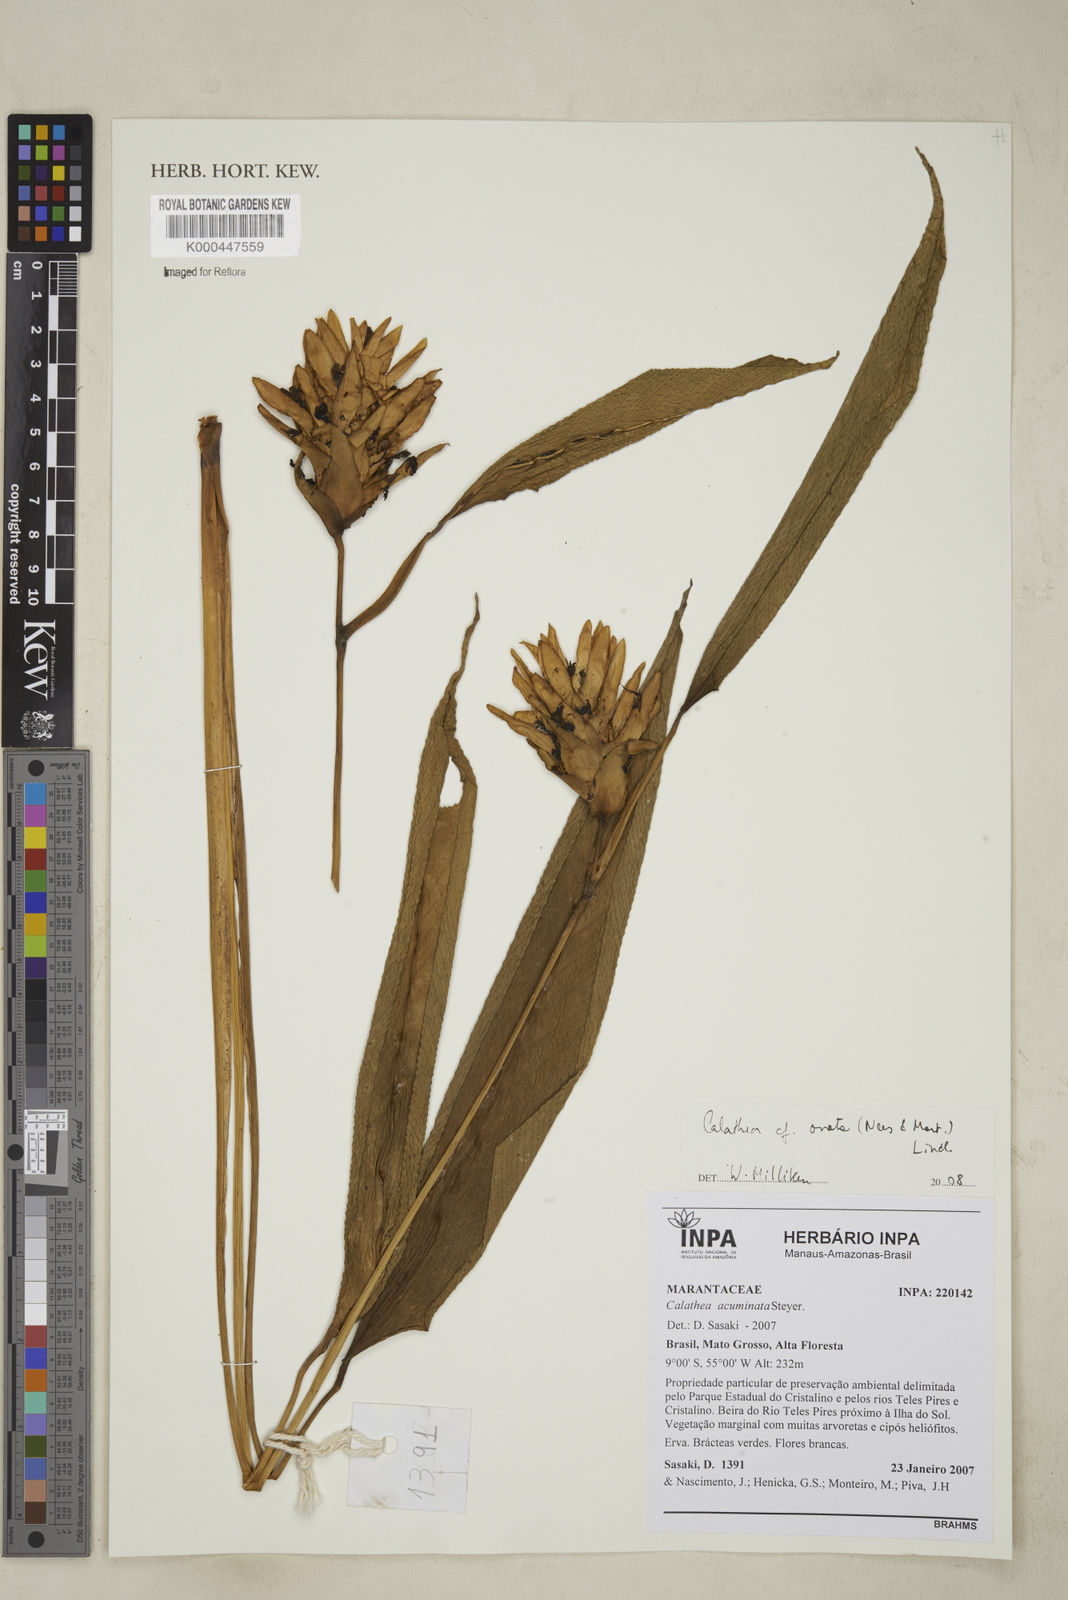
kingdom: Plantae
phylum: Tracheophyta
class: Liliopsida
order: Zingiberales
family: Marantaceae
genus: Goeppertia
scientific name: Goeppertia ovata
